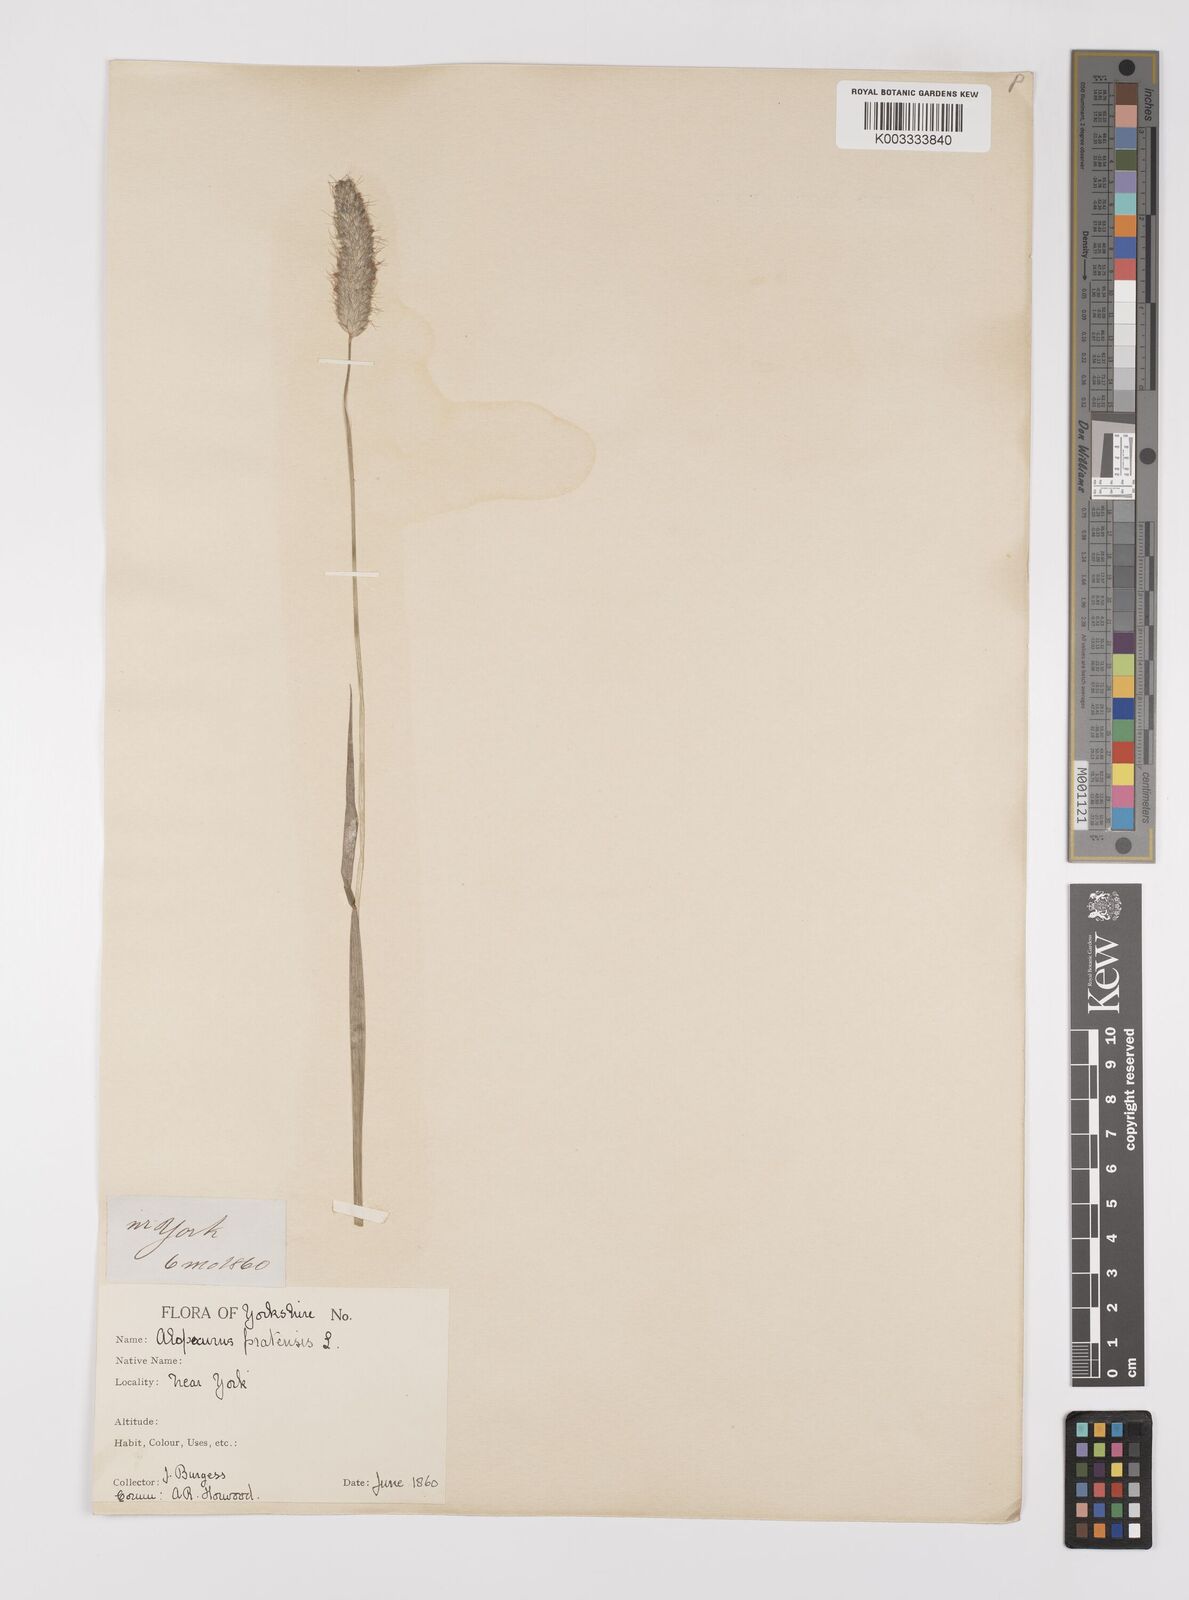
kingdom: Plantae
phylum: Tracheophyta
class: Liliopsida
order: Poales
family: Poaceae
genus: Alopecurus
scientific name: Alopecurus pratensis
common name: Meadow foxtail
